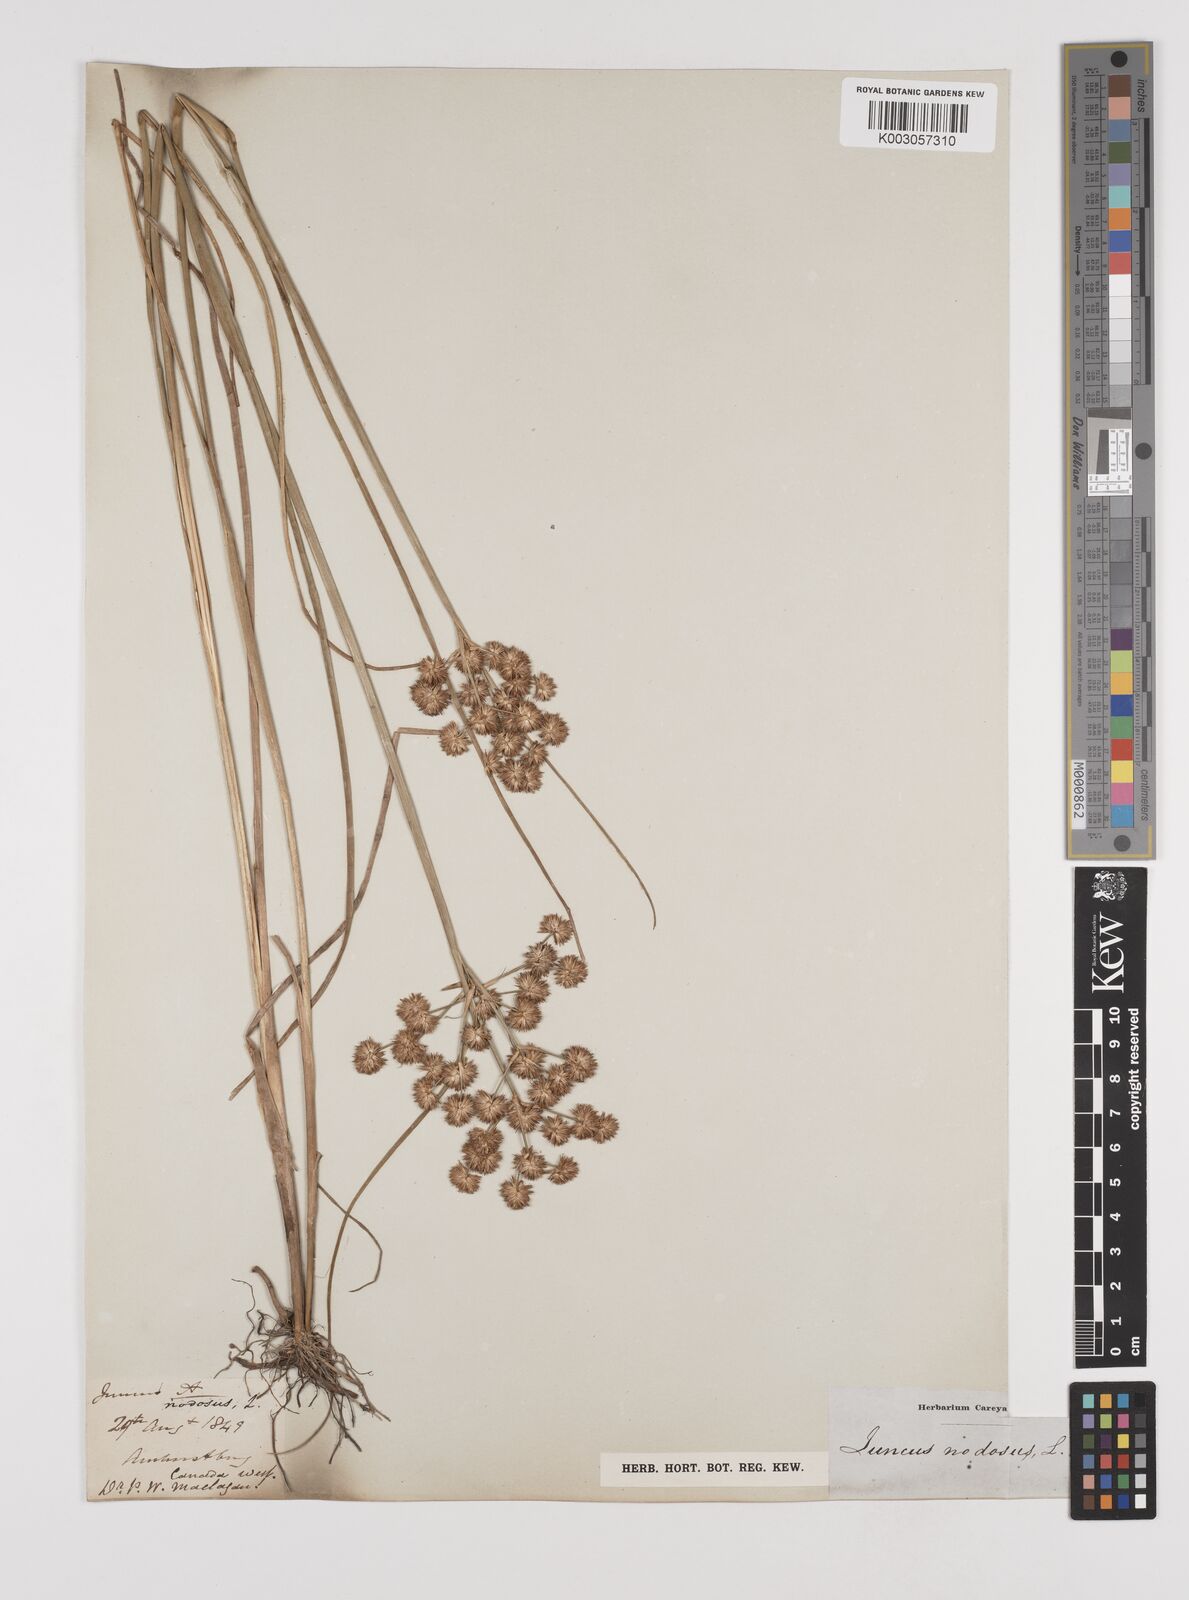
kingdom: Plantae
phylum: Tracheophyta
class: Liliopsida
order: Poales
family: Juncaceae
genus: Juncus
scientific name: Juncus nodosus
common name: Knotted rush
